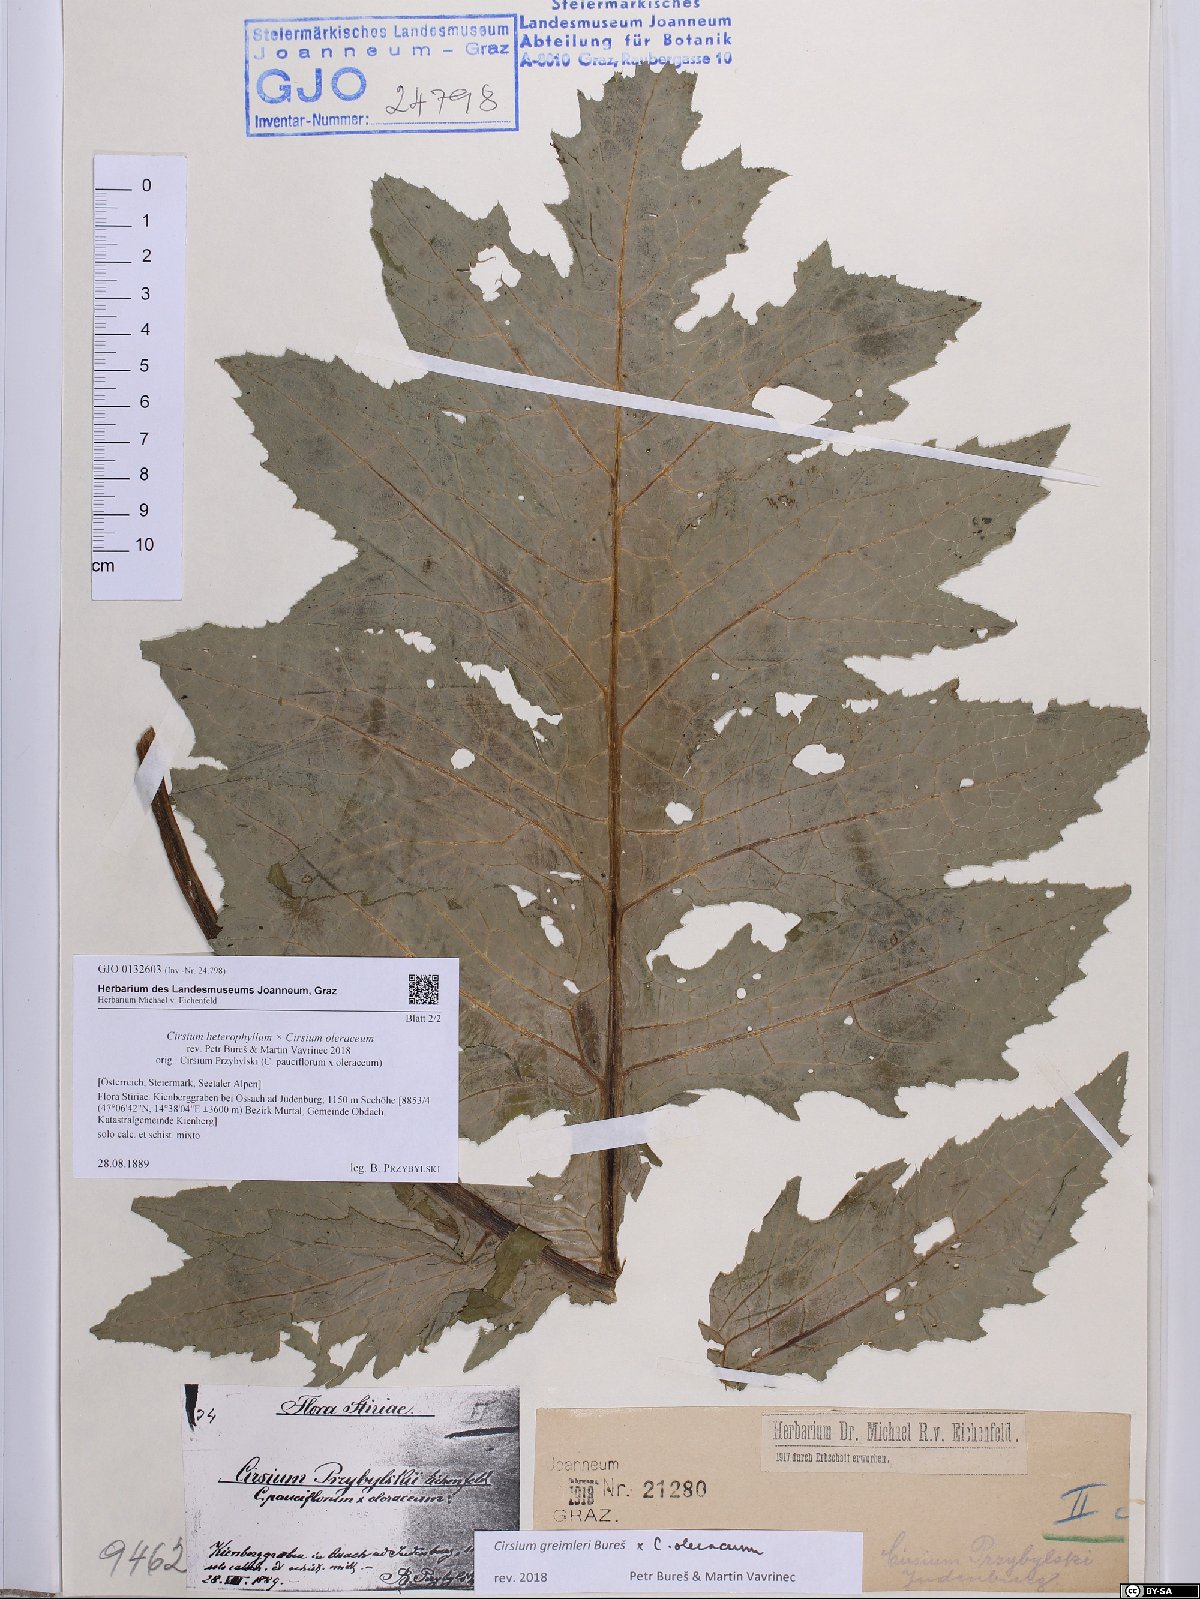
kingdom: Plantae
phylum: Tracheophyta
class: Magnoliopsida
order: Asterales
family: Asteraceae
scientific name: Asteraceae
